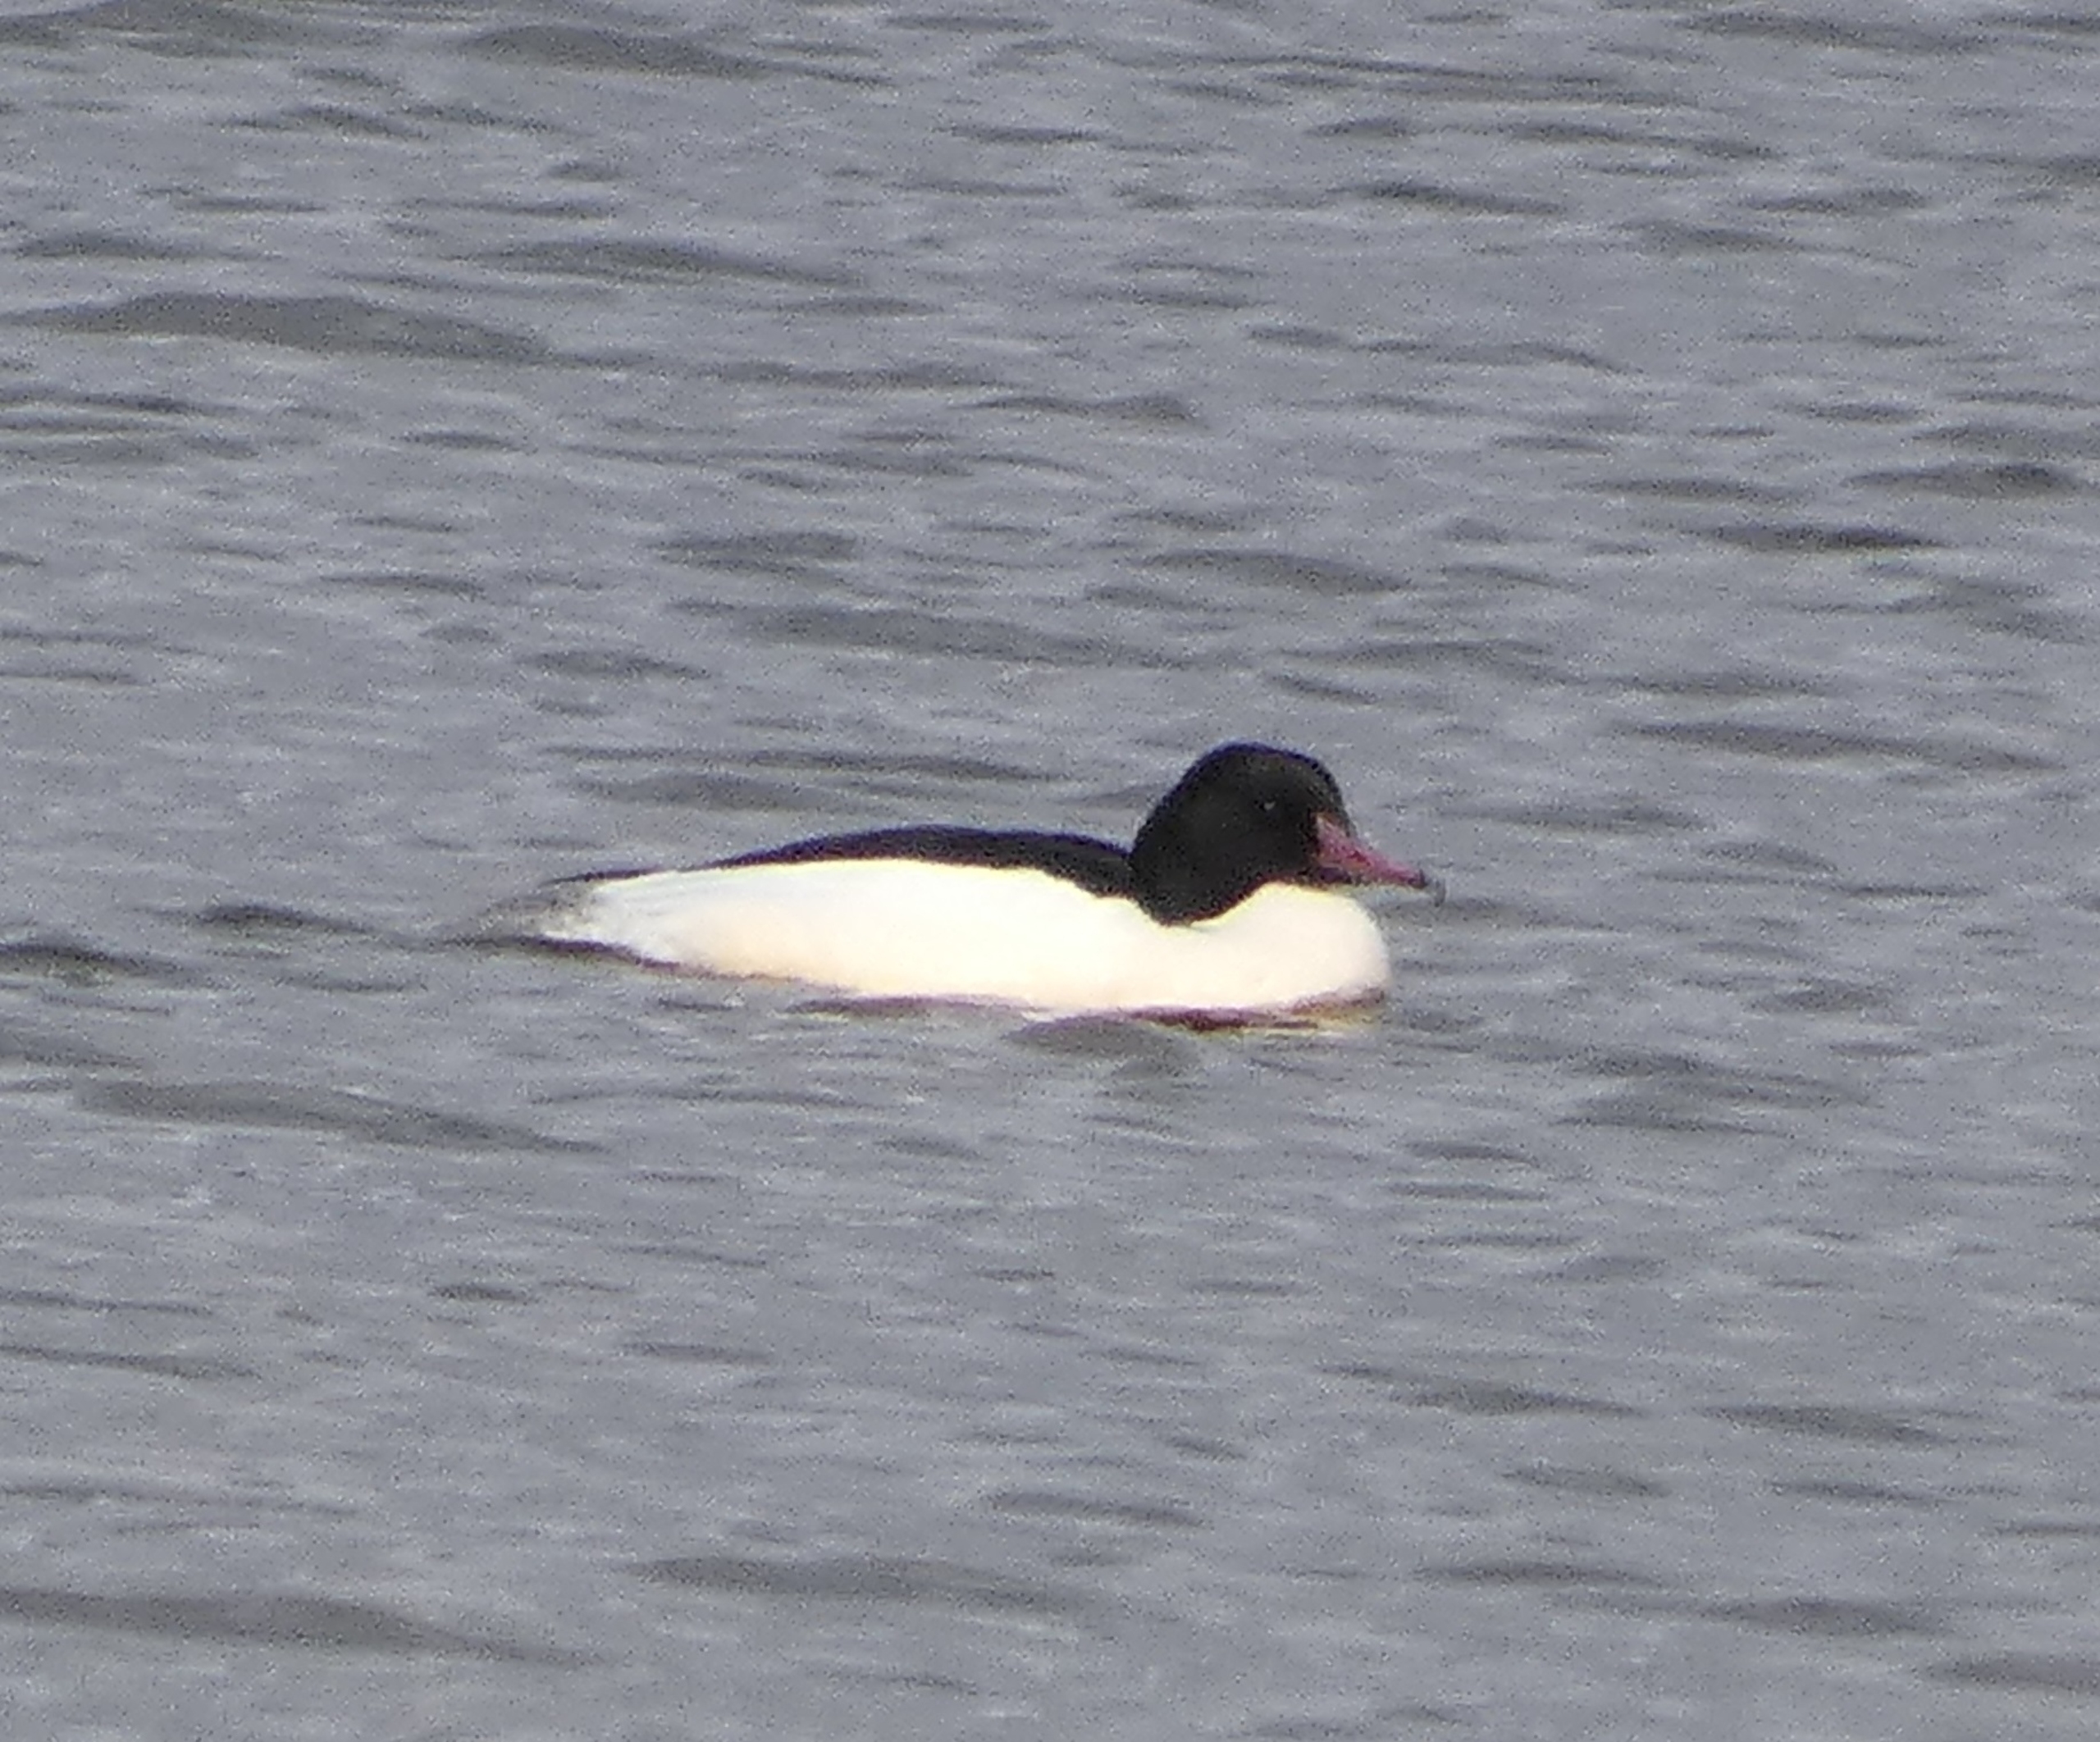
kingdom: Animalia
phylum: Chordata
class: Aves
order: Anseriformes
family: Anatidae
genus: Mergus
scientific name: Mergus merganser
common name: Stor skallesluger
